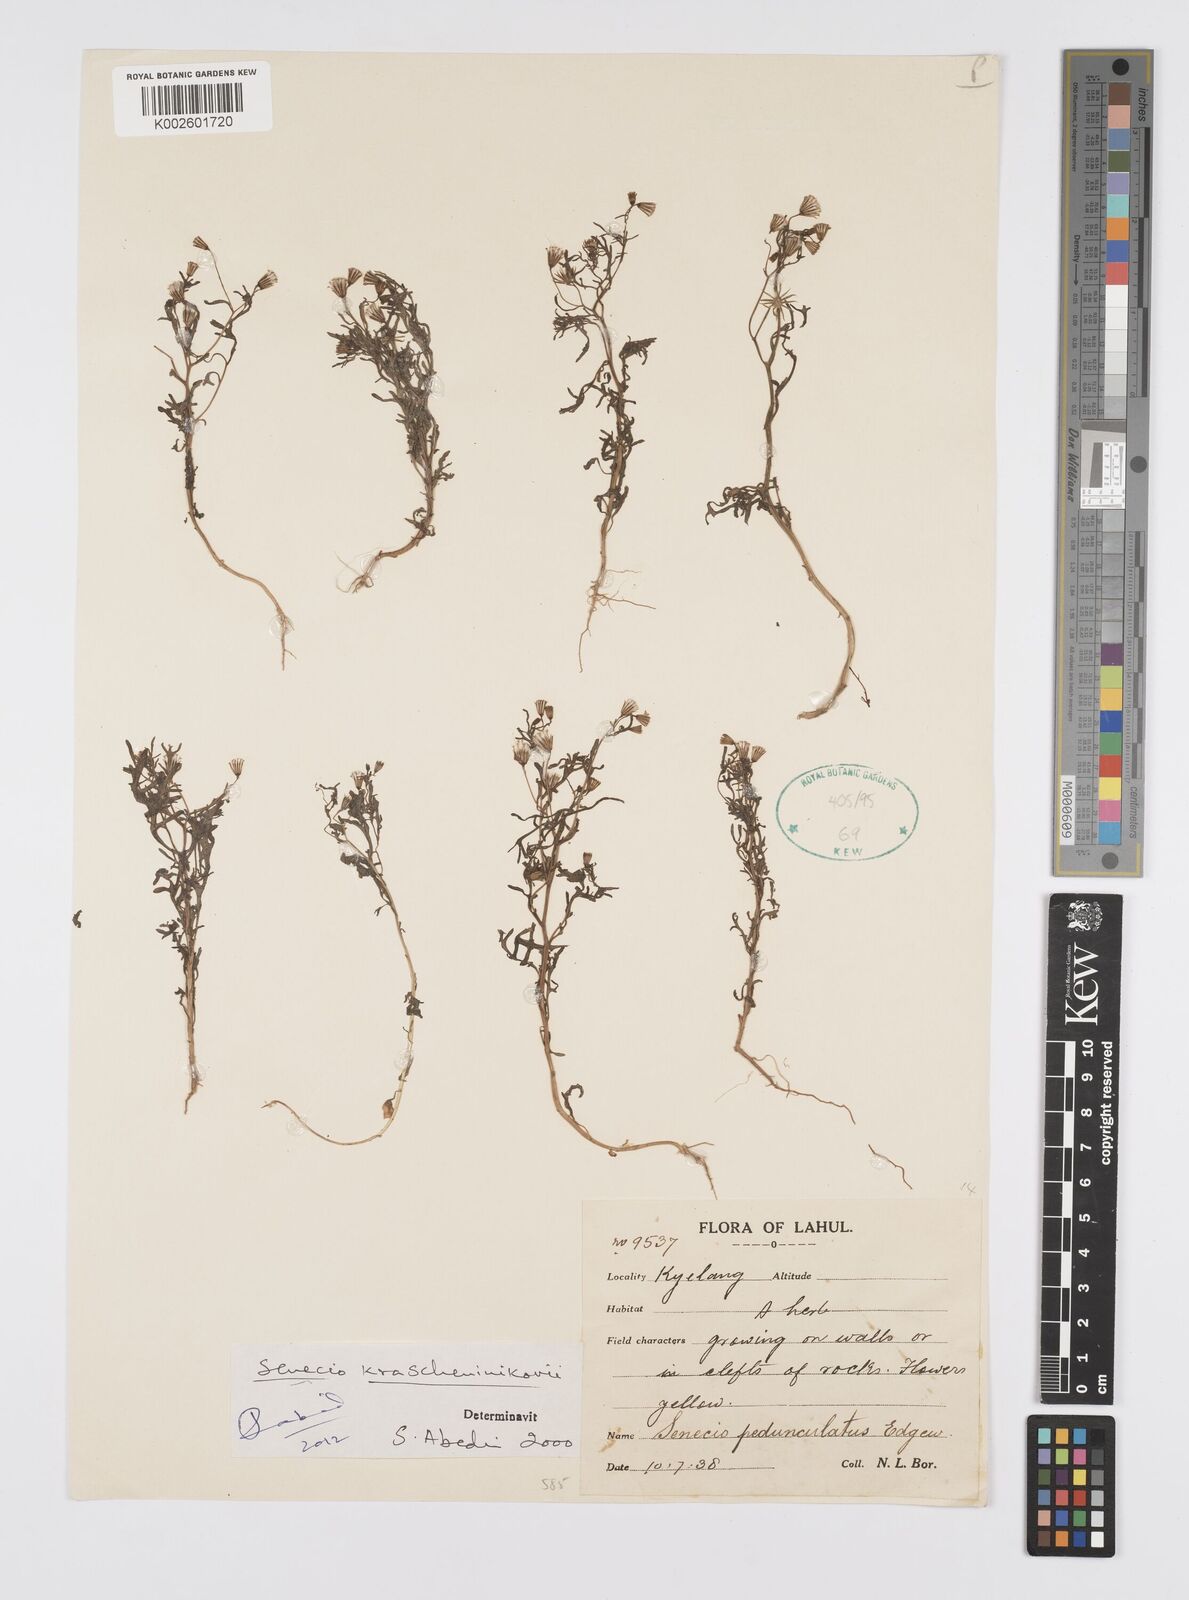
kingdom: Plantae
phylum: Tracheophyta
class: Magnoliopsida
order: Asterales
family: Asteraceae
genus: Senecio
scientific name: Senecio krascheninnikovii
